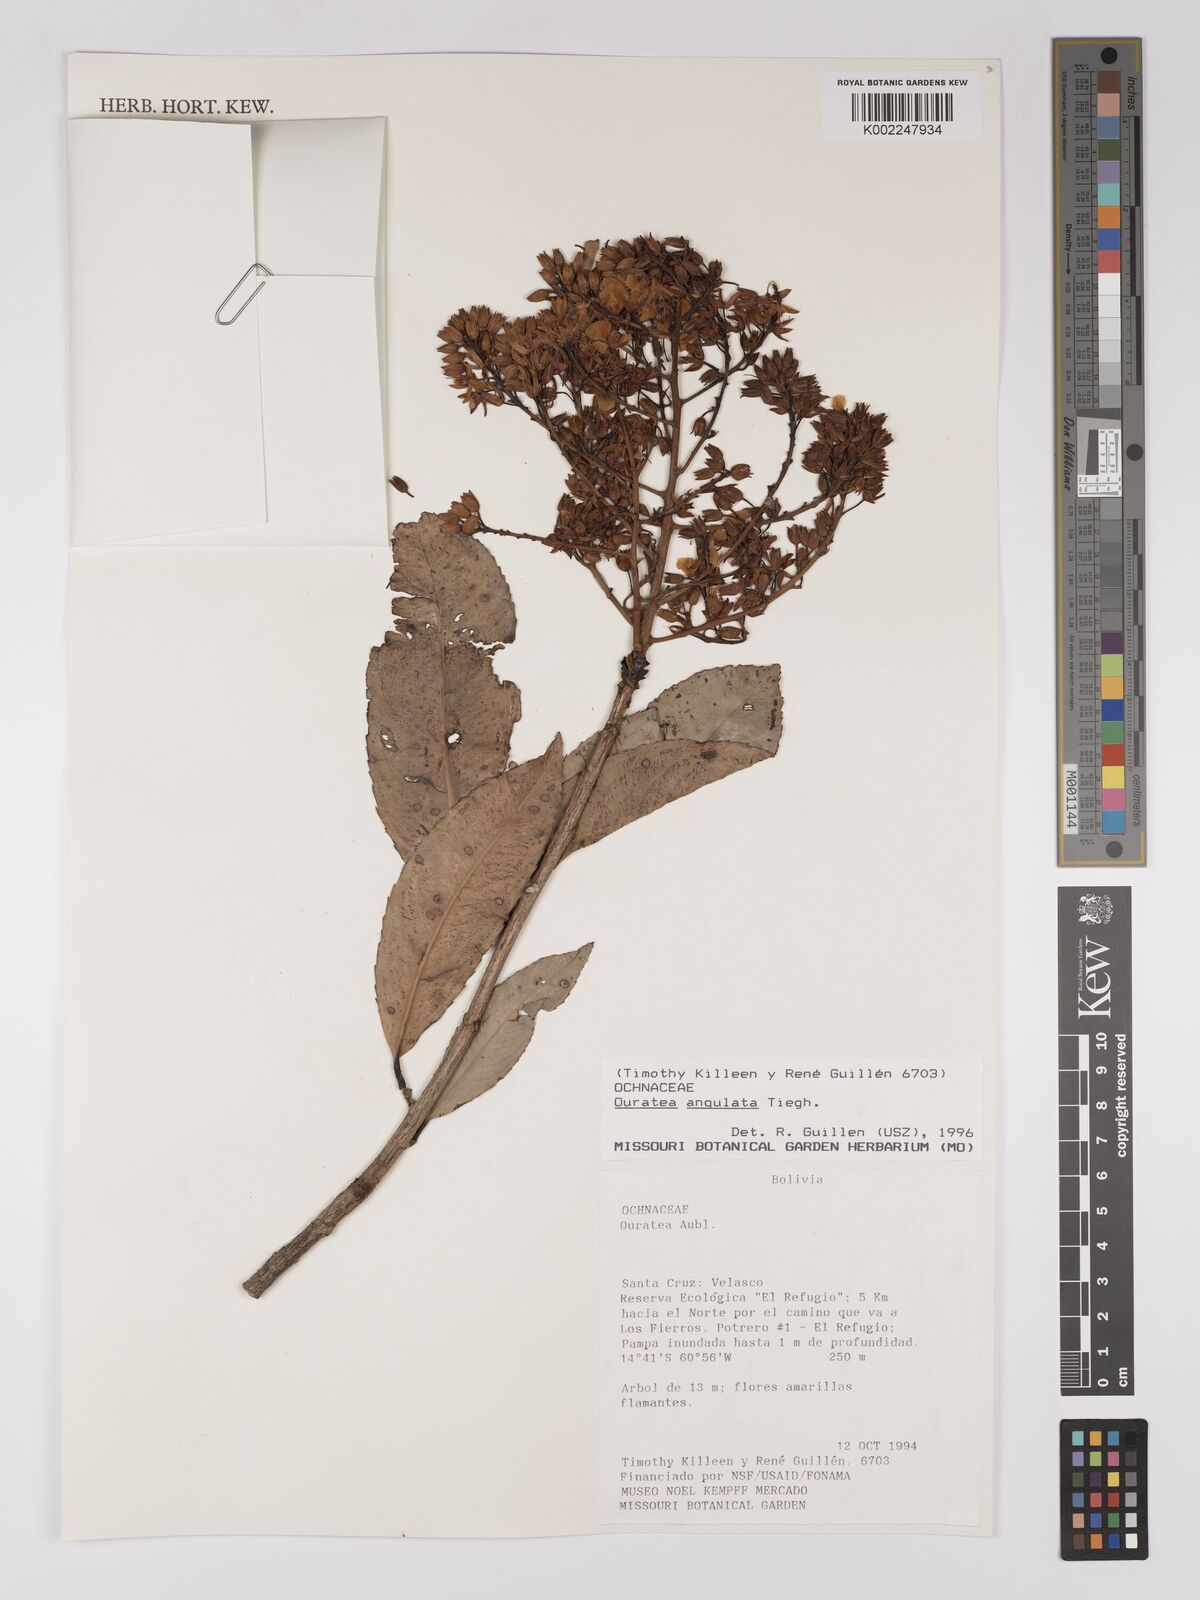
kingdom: Plantae
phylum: Tracheophyta
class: Magnoliopsida
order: Malpighiales
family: Ochnaceae
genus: Ouratea
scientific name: Ouratea castaneifolia
